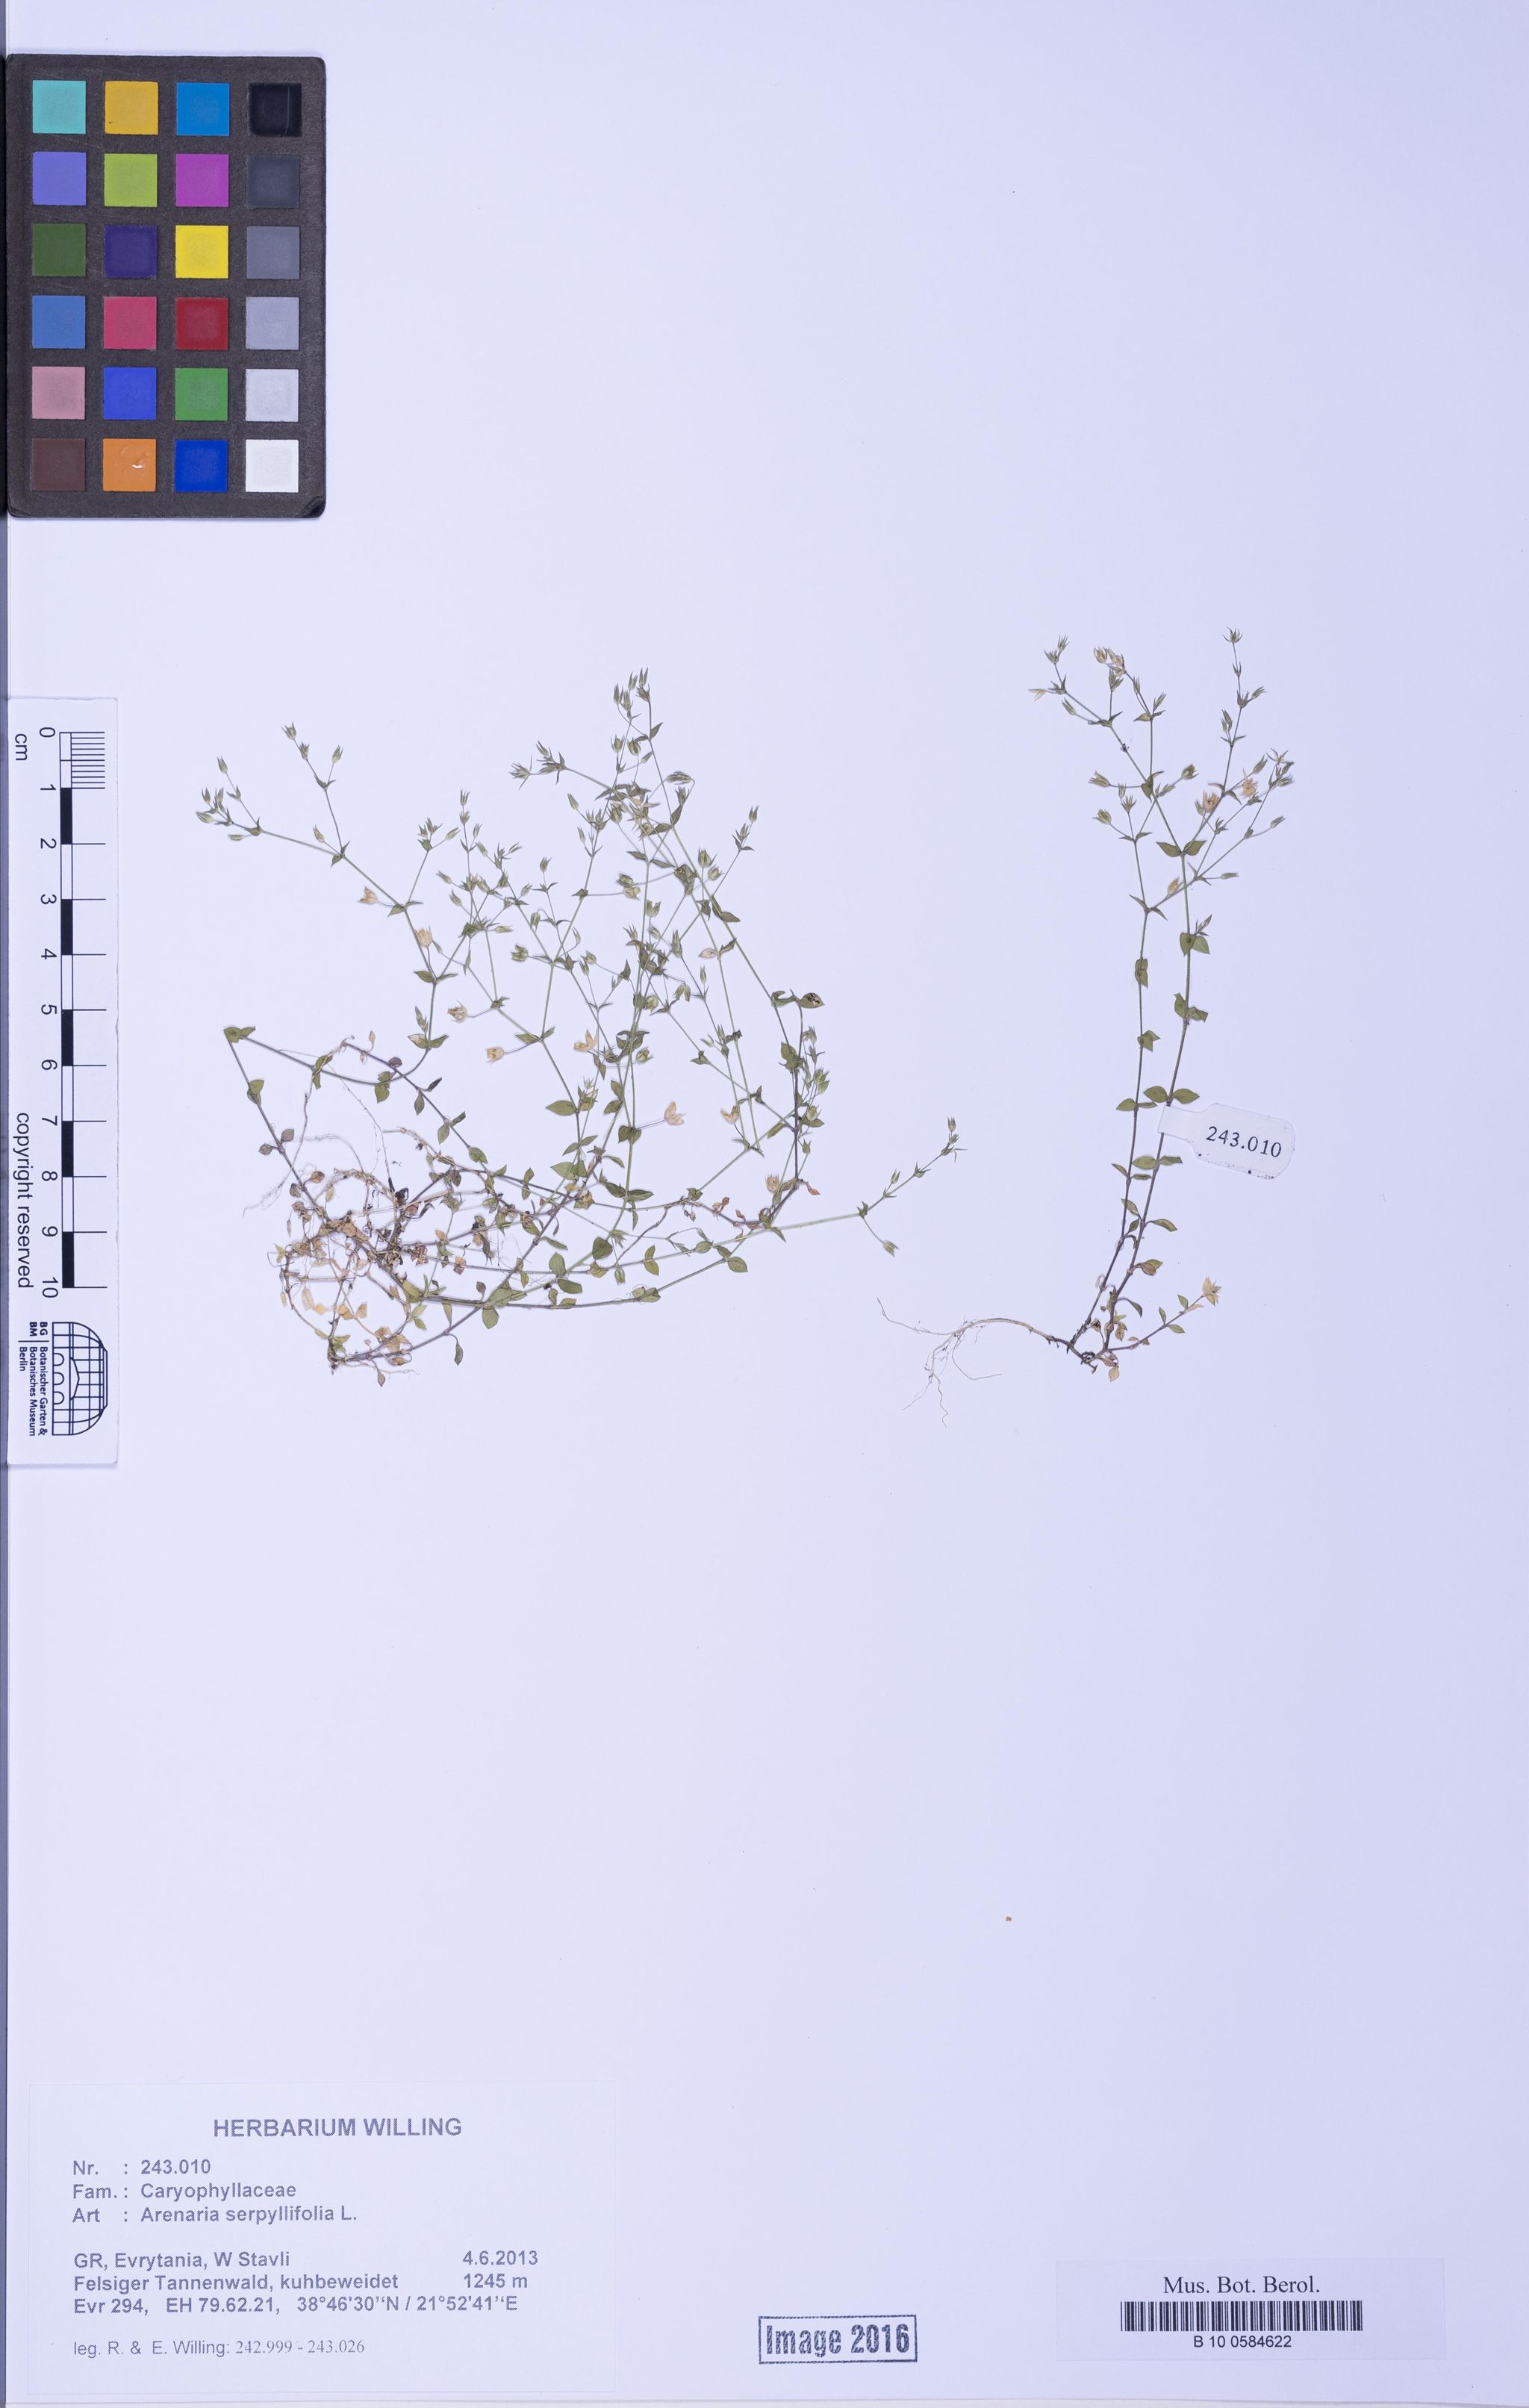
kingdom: Plantae
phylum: Tracheophyta
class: Magnoliopsida
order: Caryophyllales
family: Caryophyllaceae
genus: Arenaria
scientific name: Arenaria serpyllifolia
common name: Thyme-leaved sandwort
